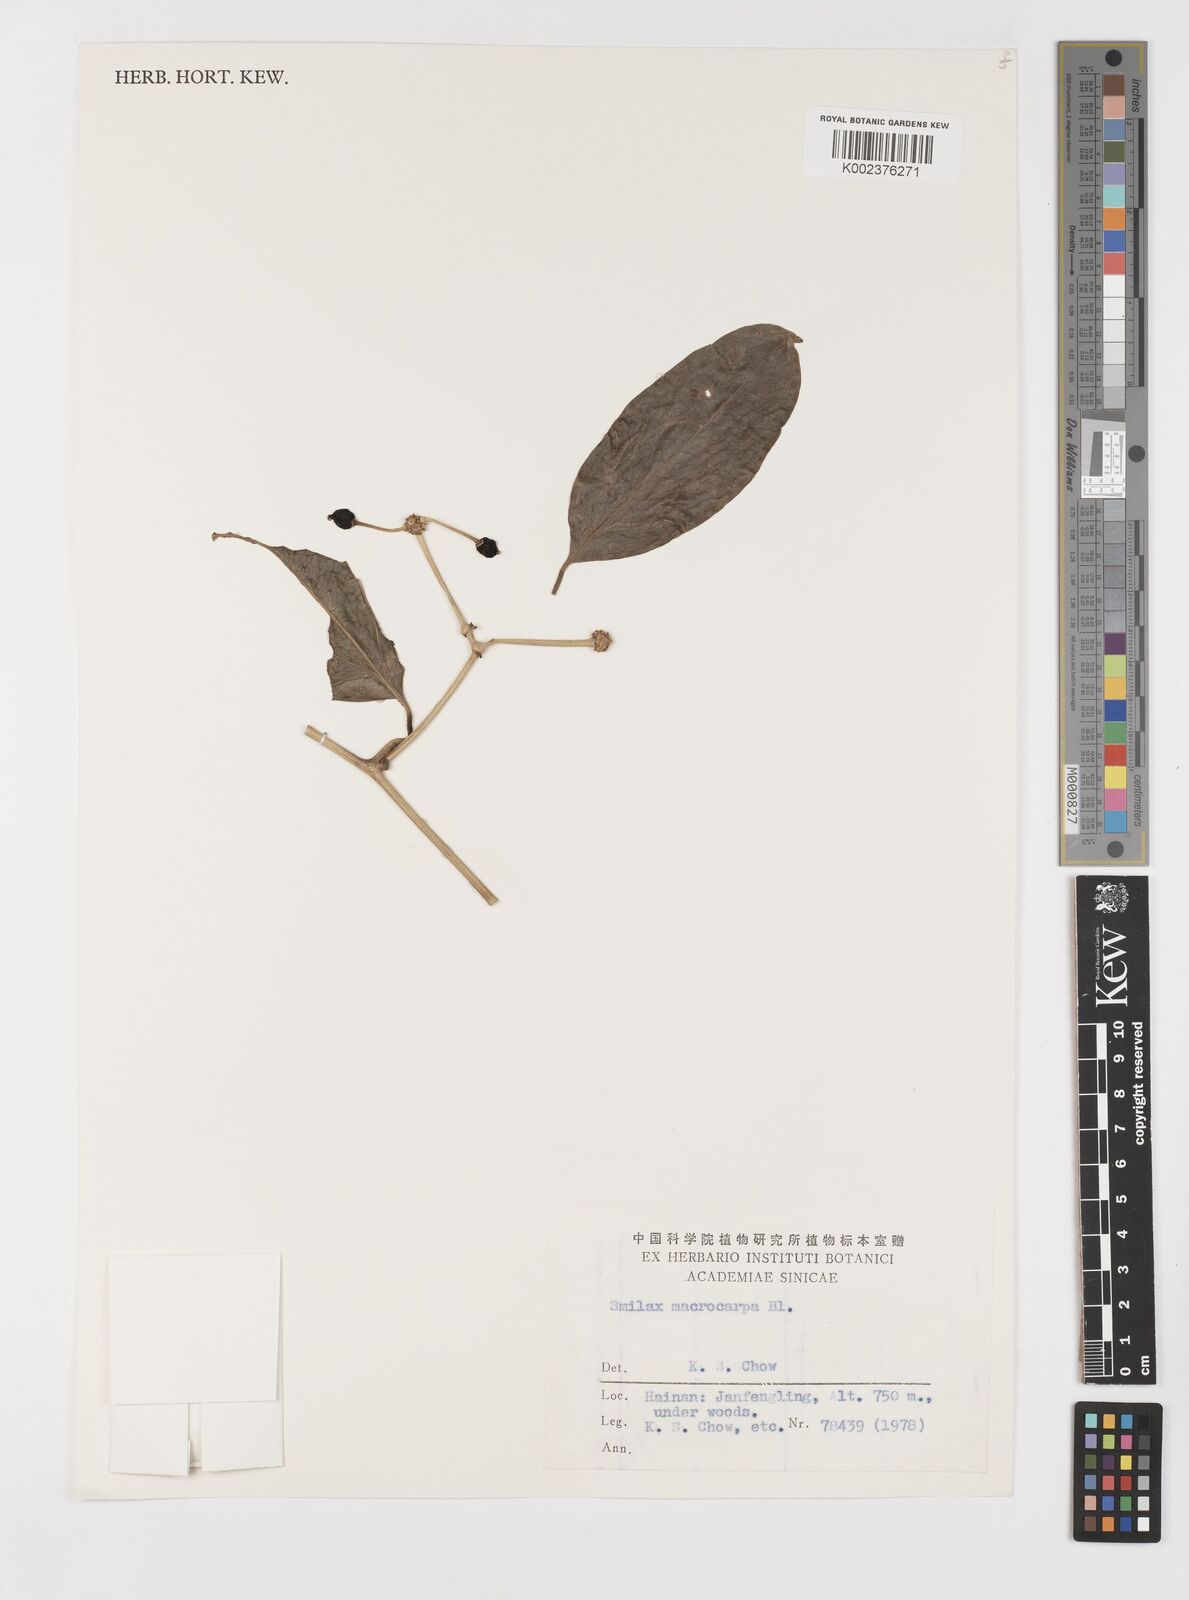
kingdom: Plantae
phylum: Tracheophyta
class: Liliopsida
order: Liliales
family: Smilacaceae
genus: Smilax
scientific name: Smilax macrocarpa
